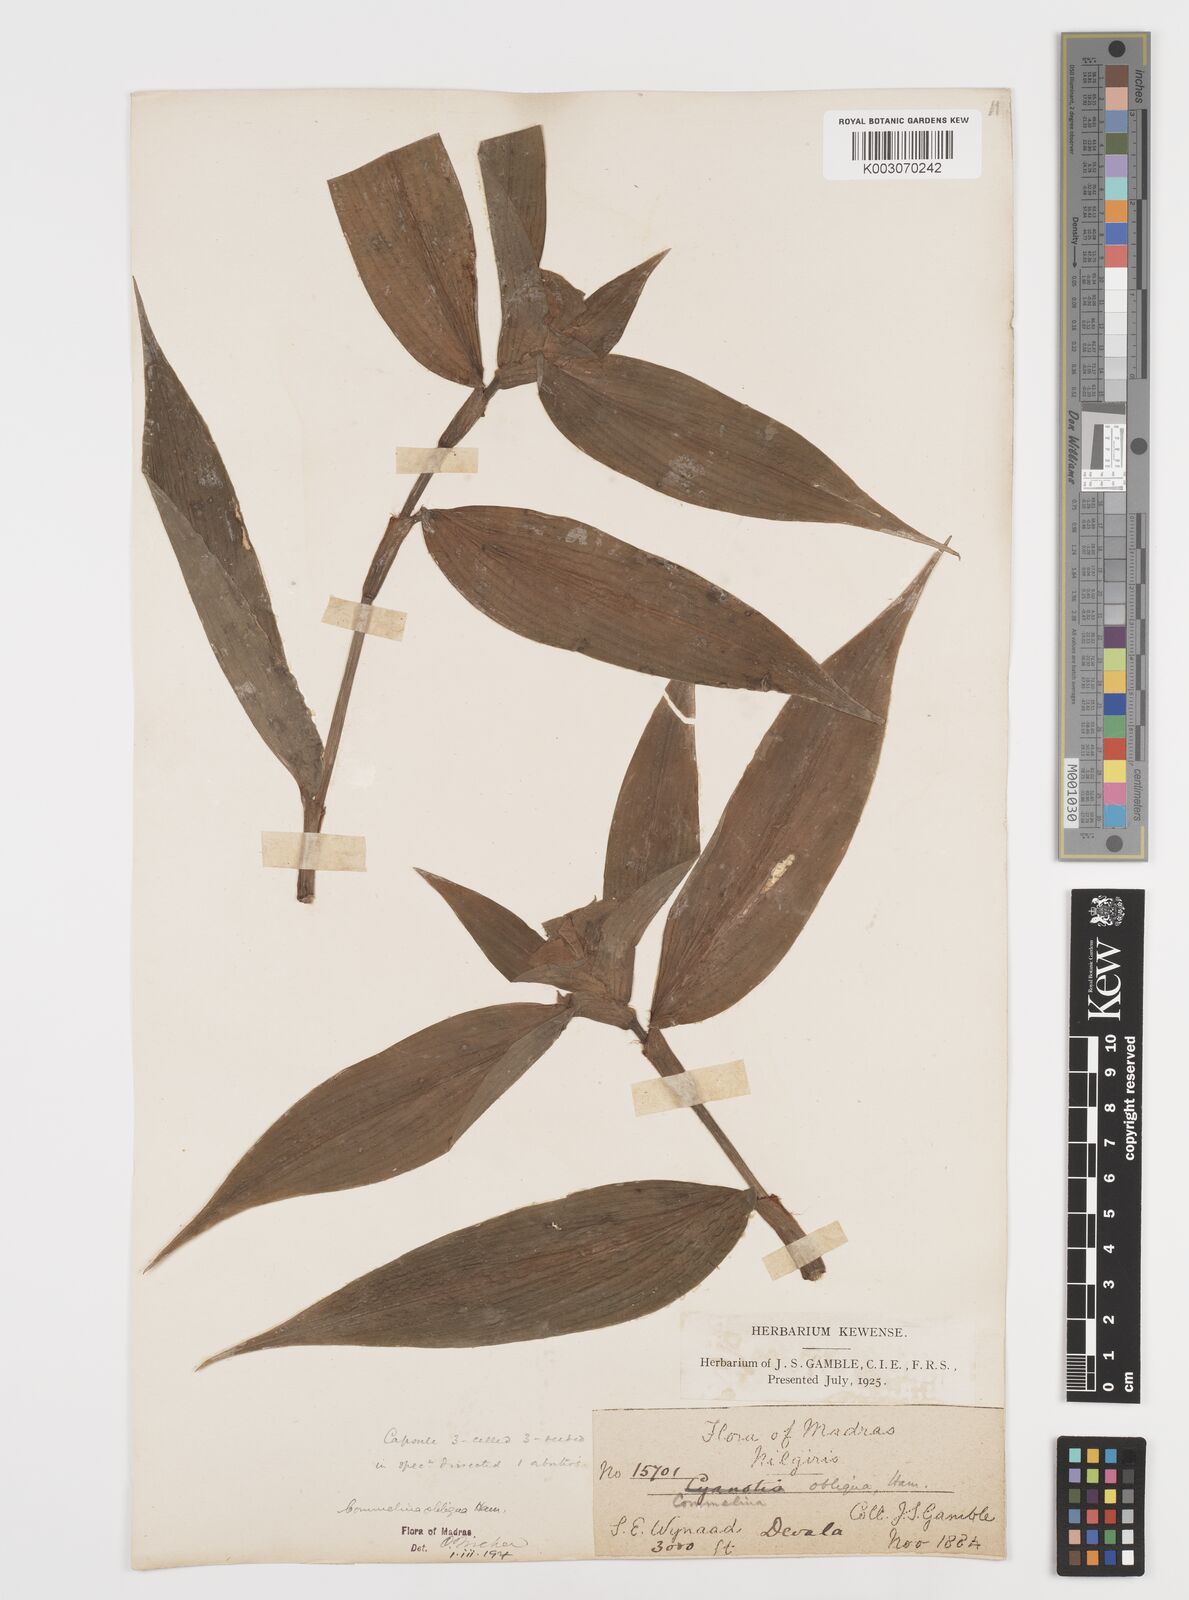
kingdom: Plantae
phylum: Tracheophyta
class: Liliopsida
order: Commelinales
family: Commelinaceae
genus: Commelina
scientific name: Commelina paludosa
